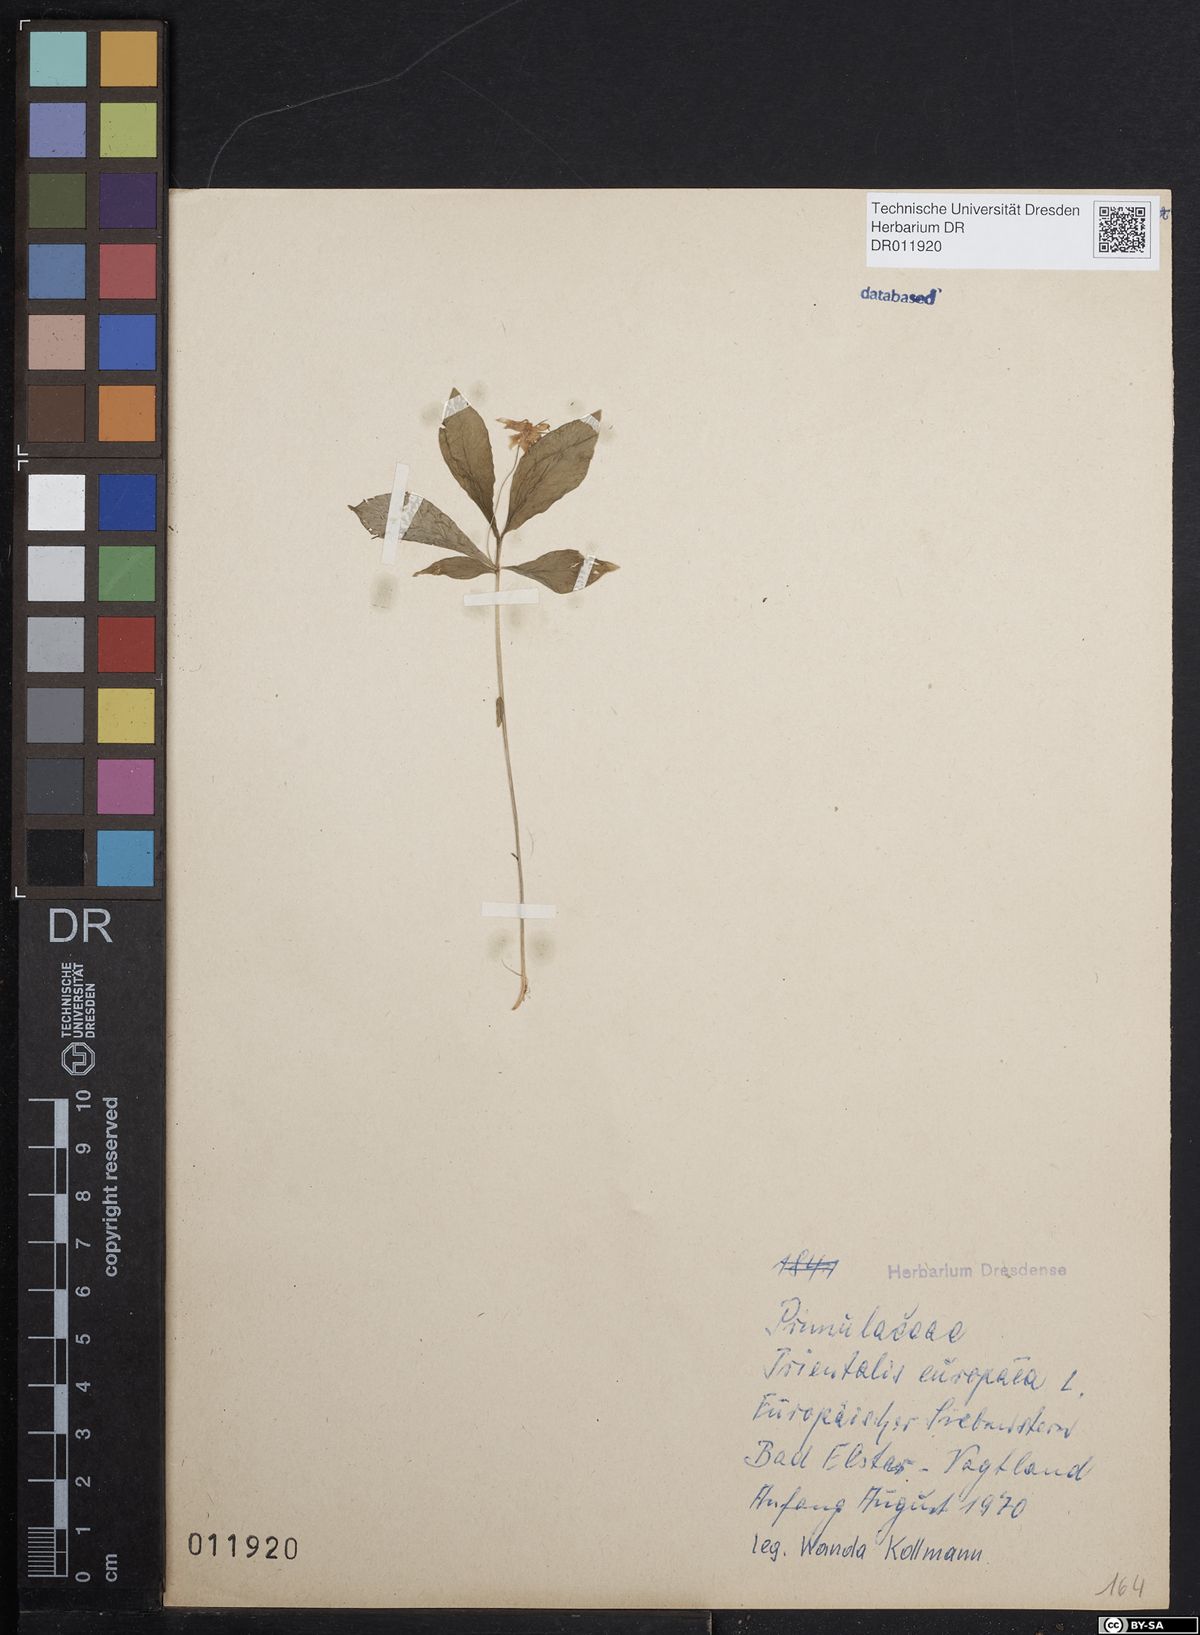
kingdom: Plantae
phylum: Tracheophyta
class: Magnoliopsida
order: Ericales
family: Primulaceae
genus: Lysimachia
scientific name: Lysimachia europaea
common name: Arctic starflower
